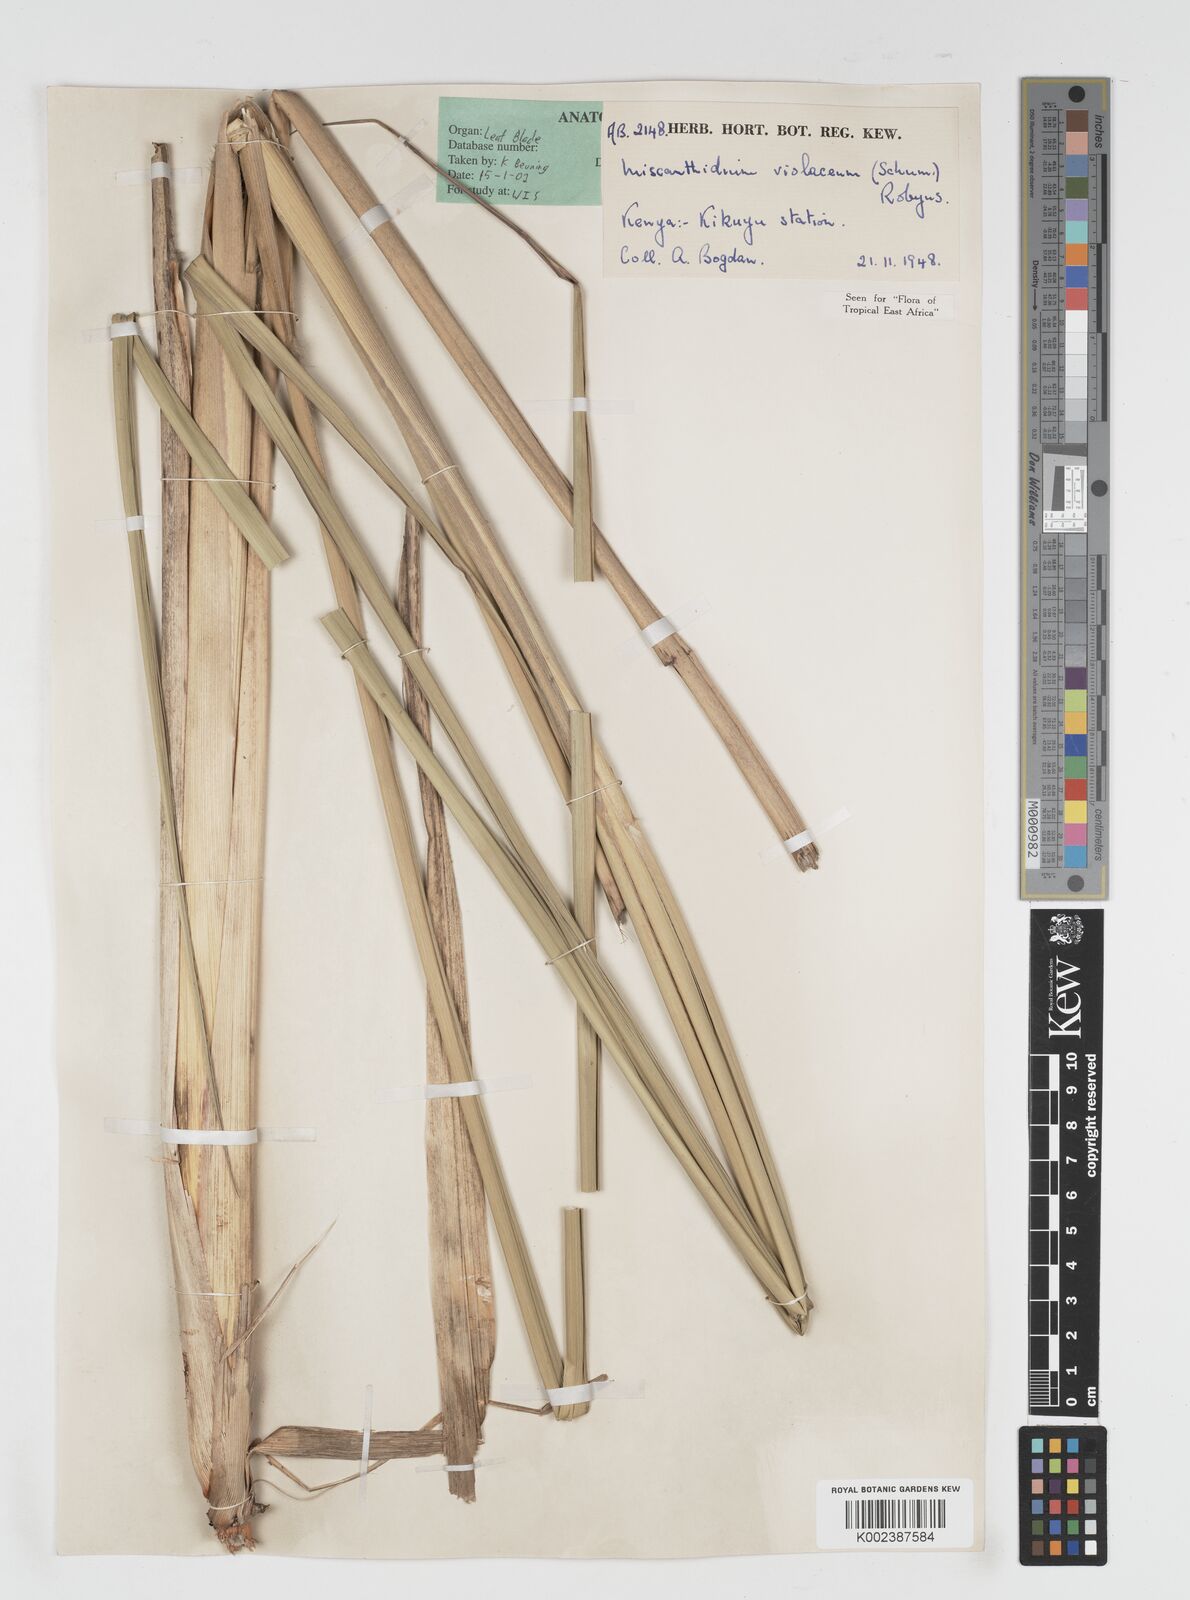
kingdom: Plantae
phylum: Tracheophyta
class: Liliopsida
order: Poales
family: Poaceae
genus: Miscanthidium
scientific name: Miscanthidium violaceum
